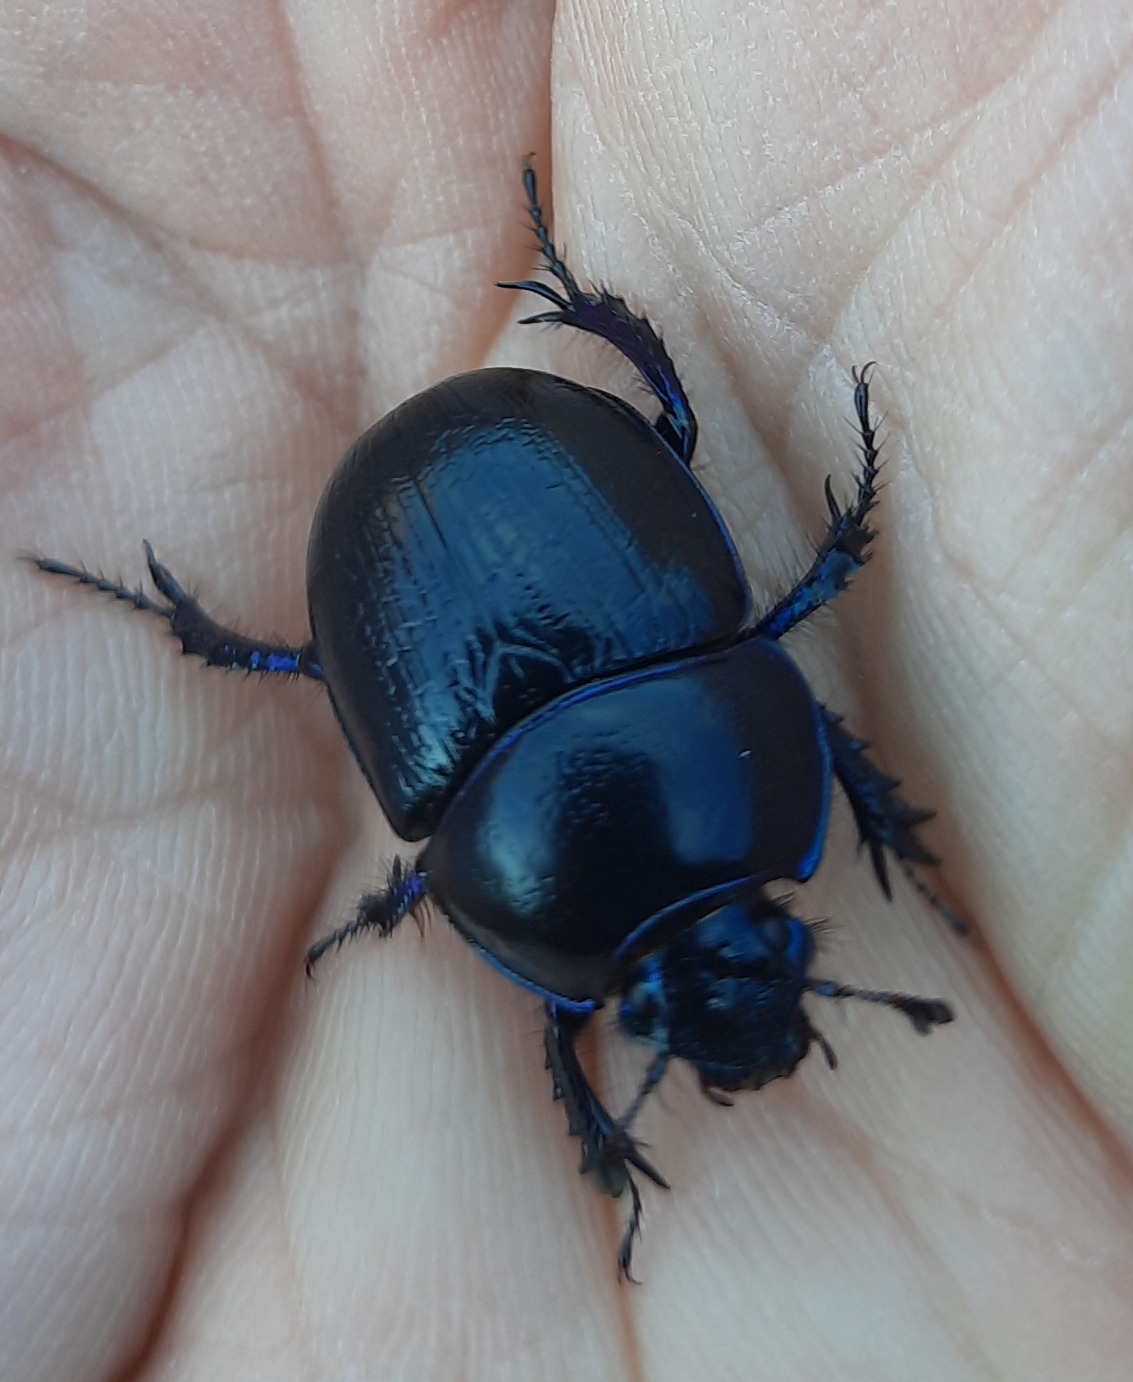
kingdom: Animalia
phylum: Arthropoda
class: Insecta
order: Coleoptera
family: Geotrupidae
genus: Anoplotrupes
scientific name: Anoplotrupes stercorosus
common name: Skovskarnbasse
